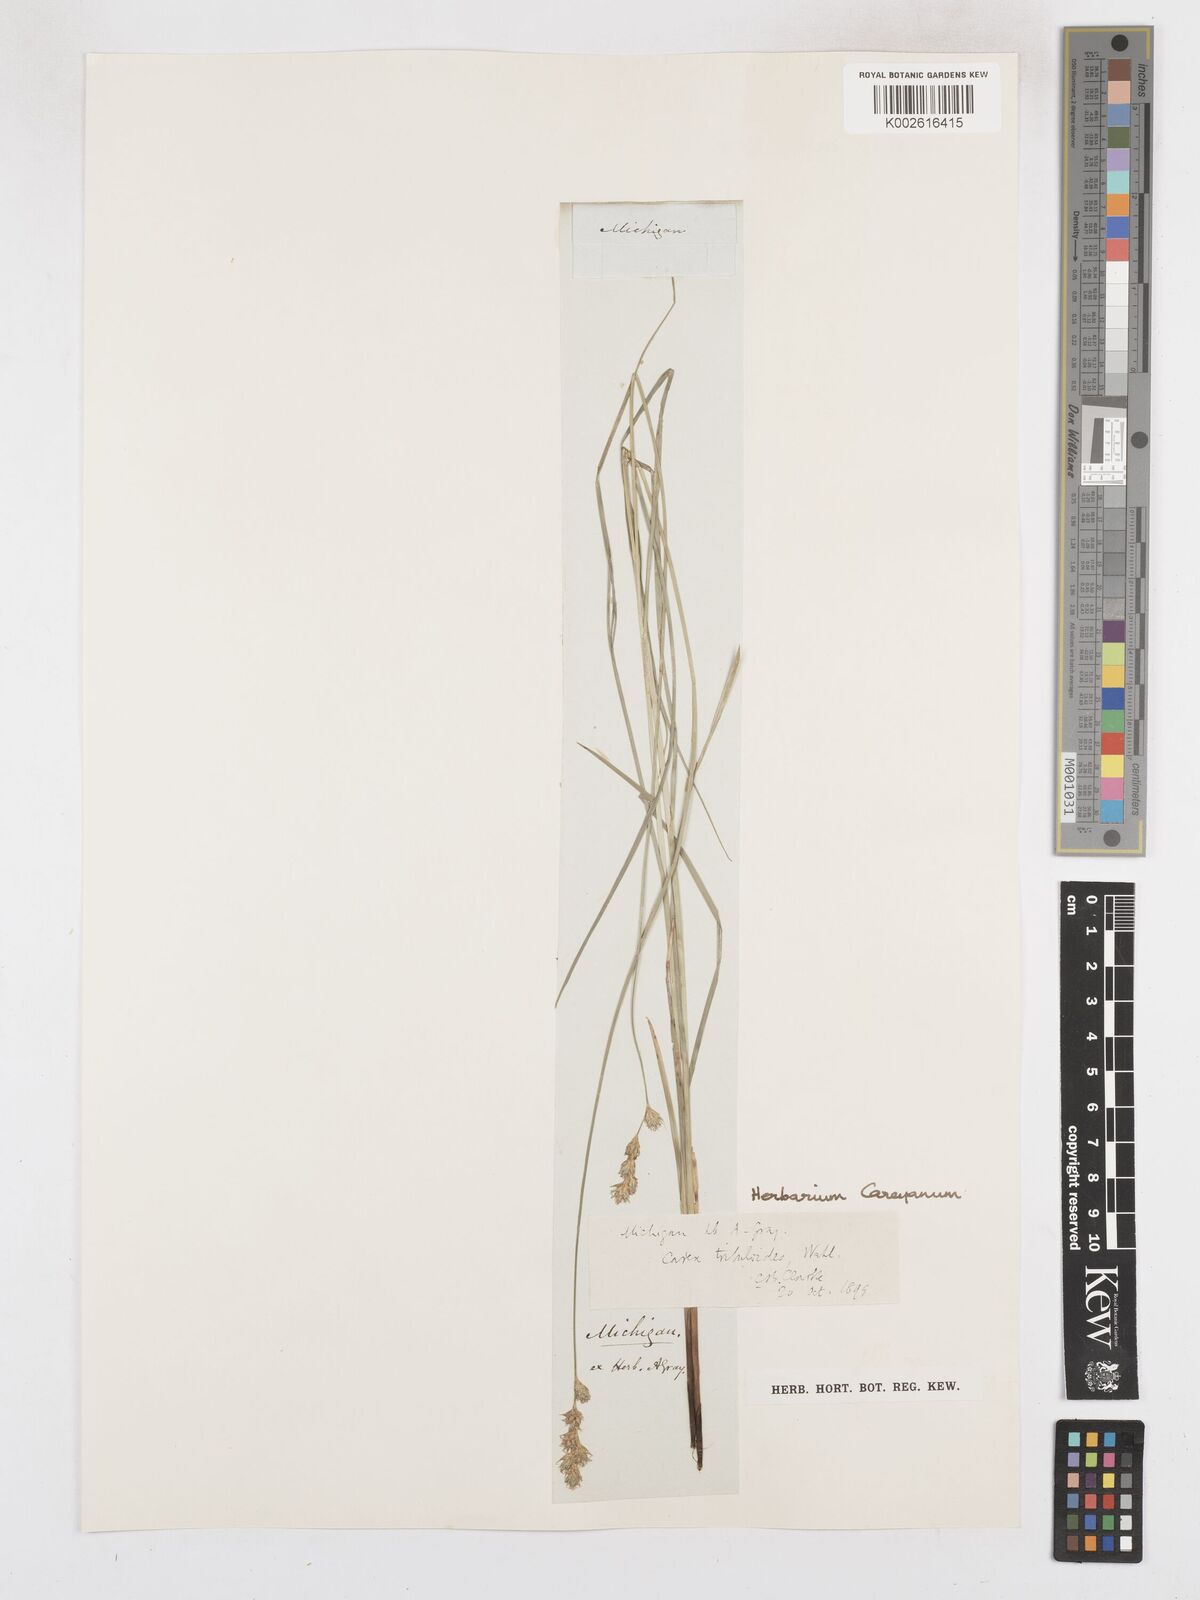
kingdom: Plantae
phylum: Tracheophyta
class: Liliopsida
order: Poales
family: Cyperaceae
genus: Carex
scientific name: Carex tribuloides
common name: Blunt broom sedge
